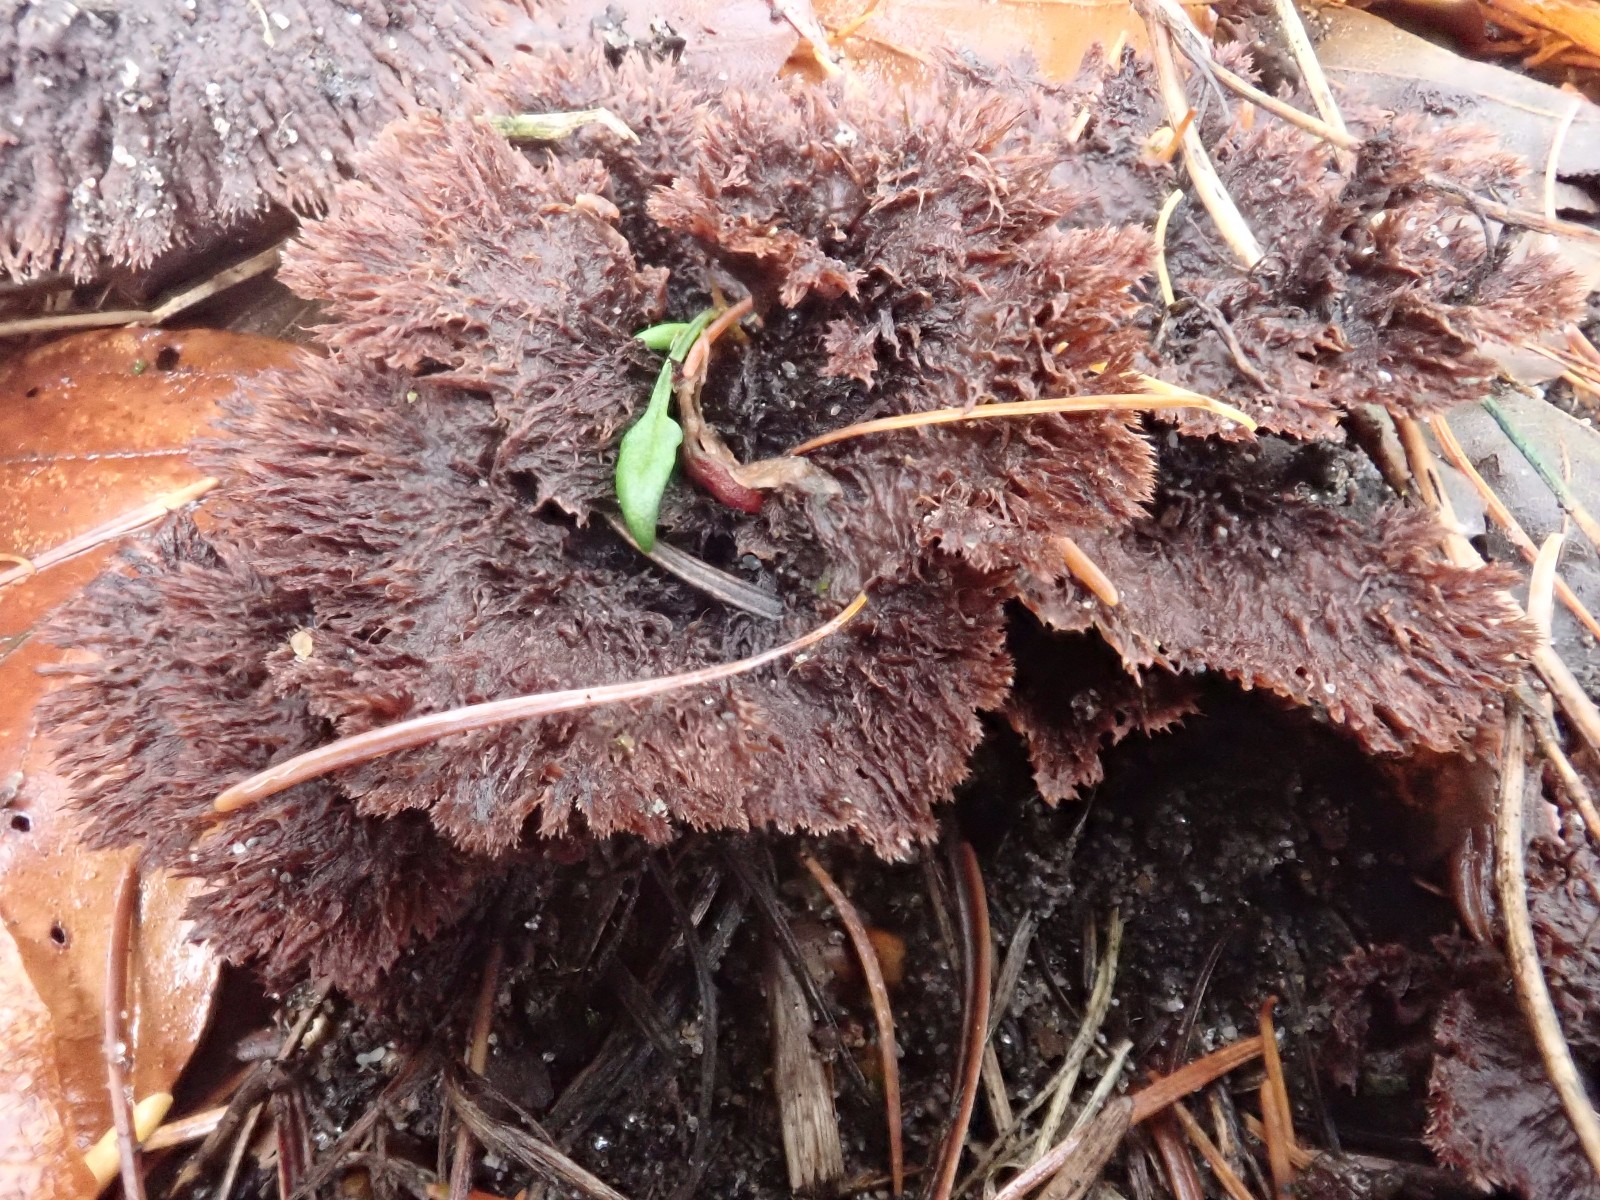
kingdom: Fungi
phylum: Basidiomycota
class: Agaricomycetes
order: Thelephorales
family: Thelephoraceae
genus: Thelephora
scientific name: Thelephora terrestris
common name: fliget frynsesvamp
